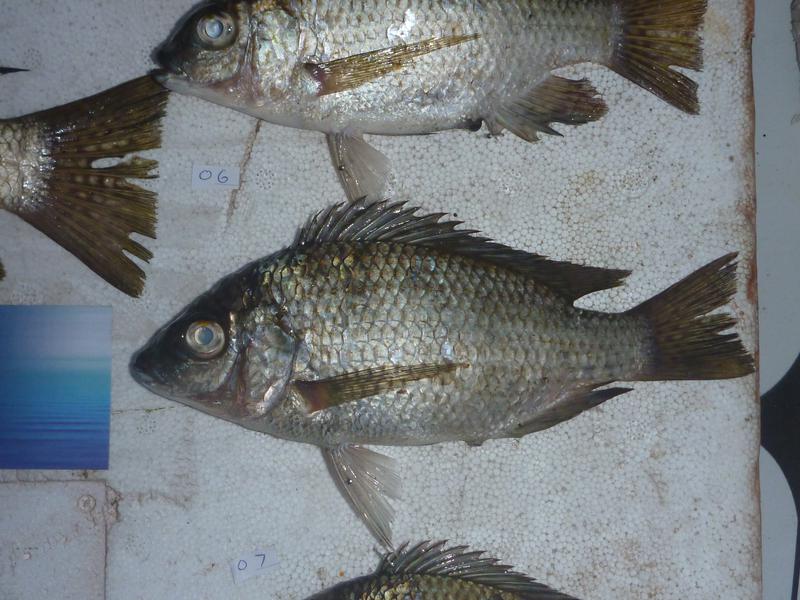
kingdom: Animalia
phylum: Chordata
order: Perciformes
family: Cichlidae
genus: Oreochromis
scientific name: Oreochromis karomo
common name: Karomo
